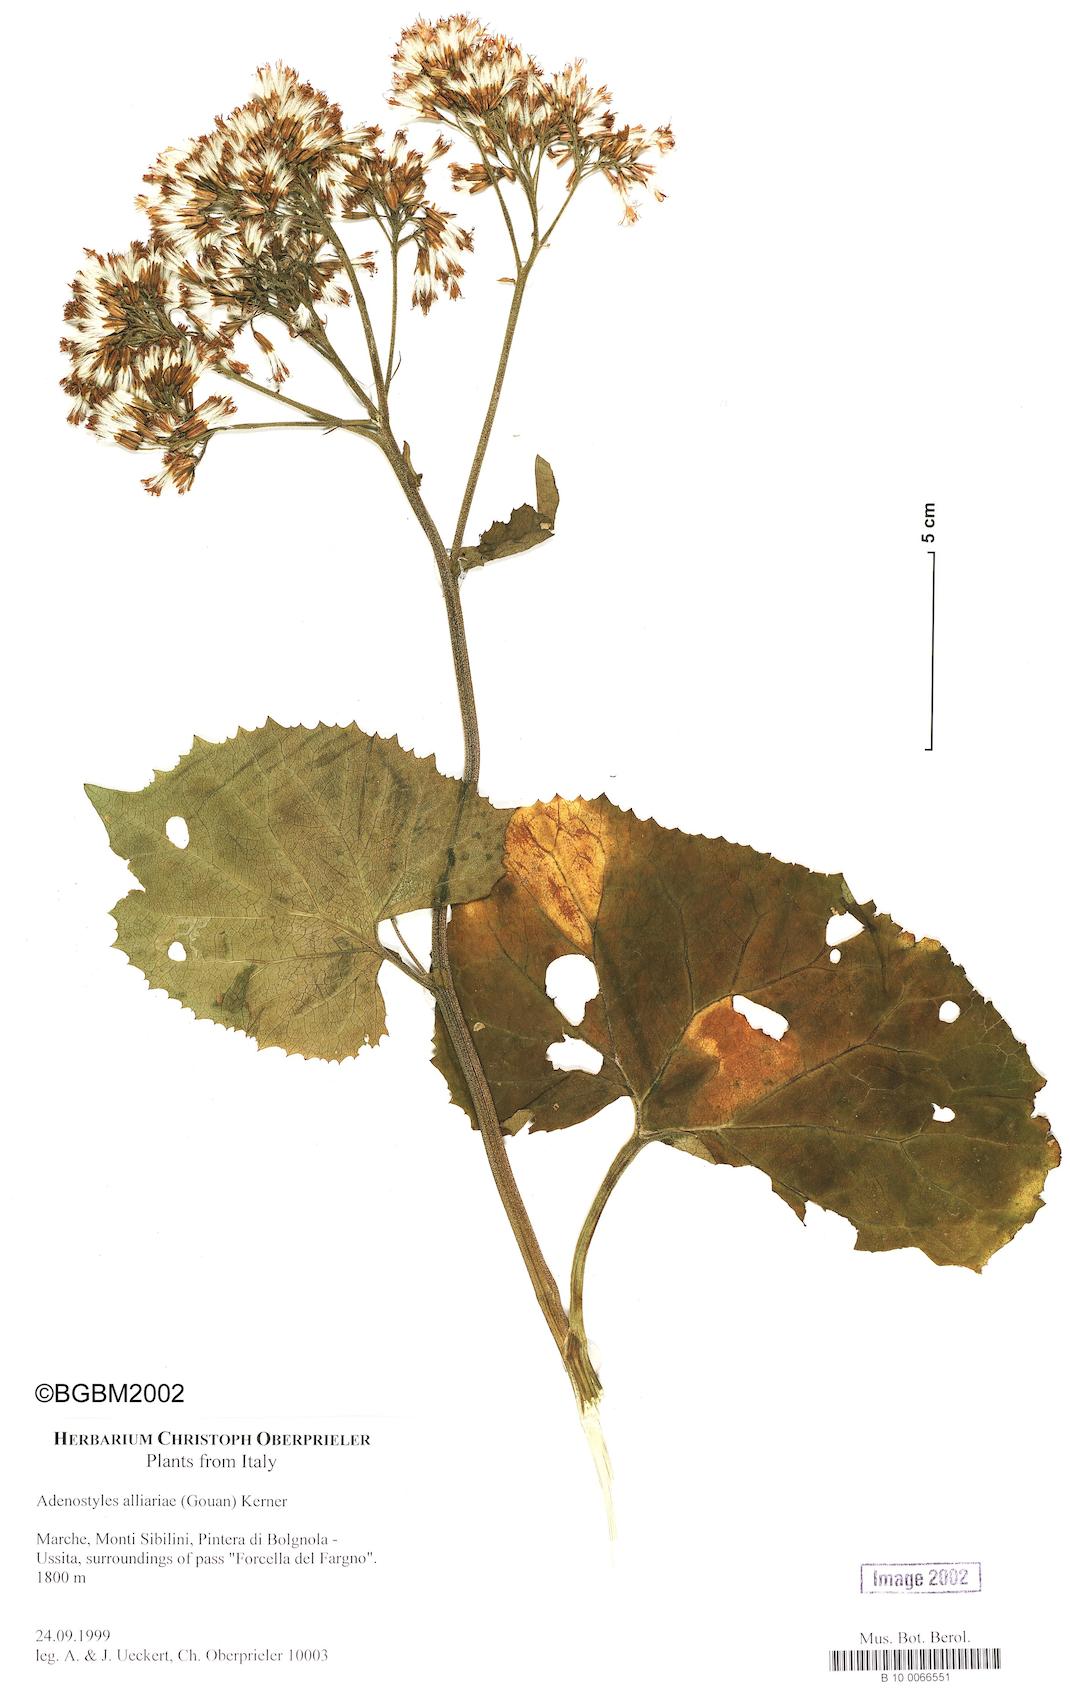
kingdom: Plantae
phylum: Tracheophyta
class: Magnoliopsida
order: Asterales
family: Asteraceae
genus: Adenostyles
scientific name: Adenostyles alliariae
